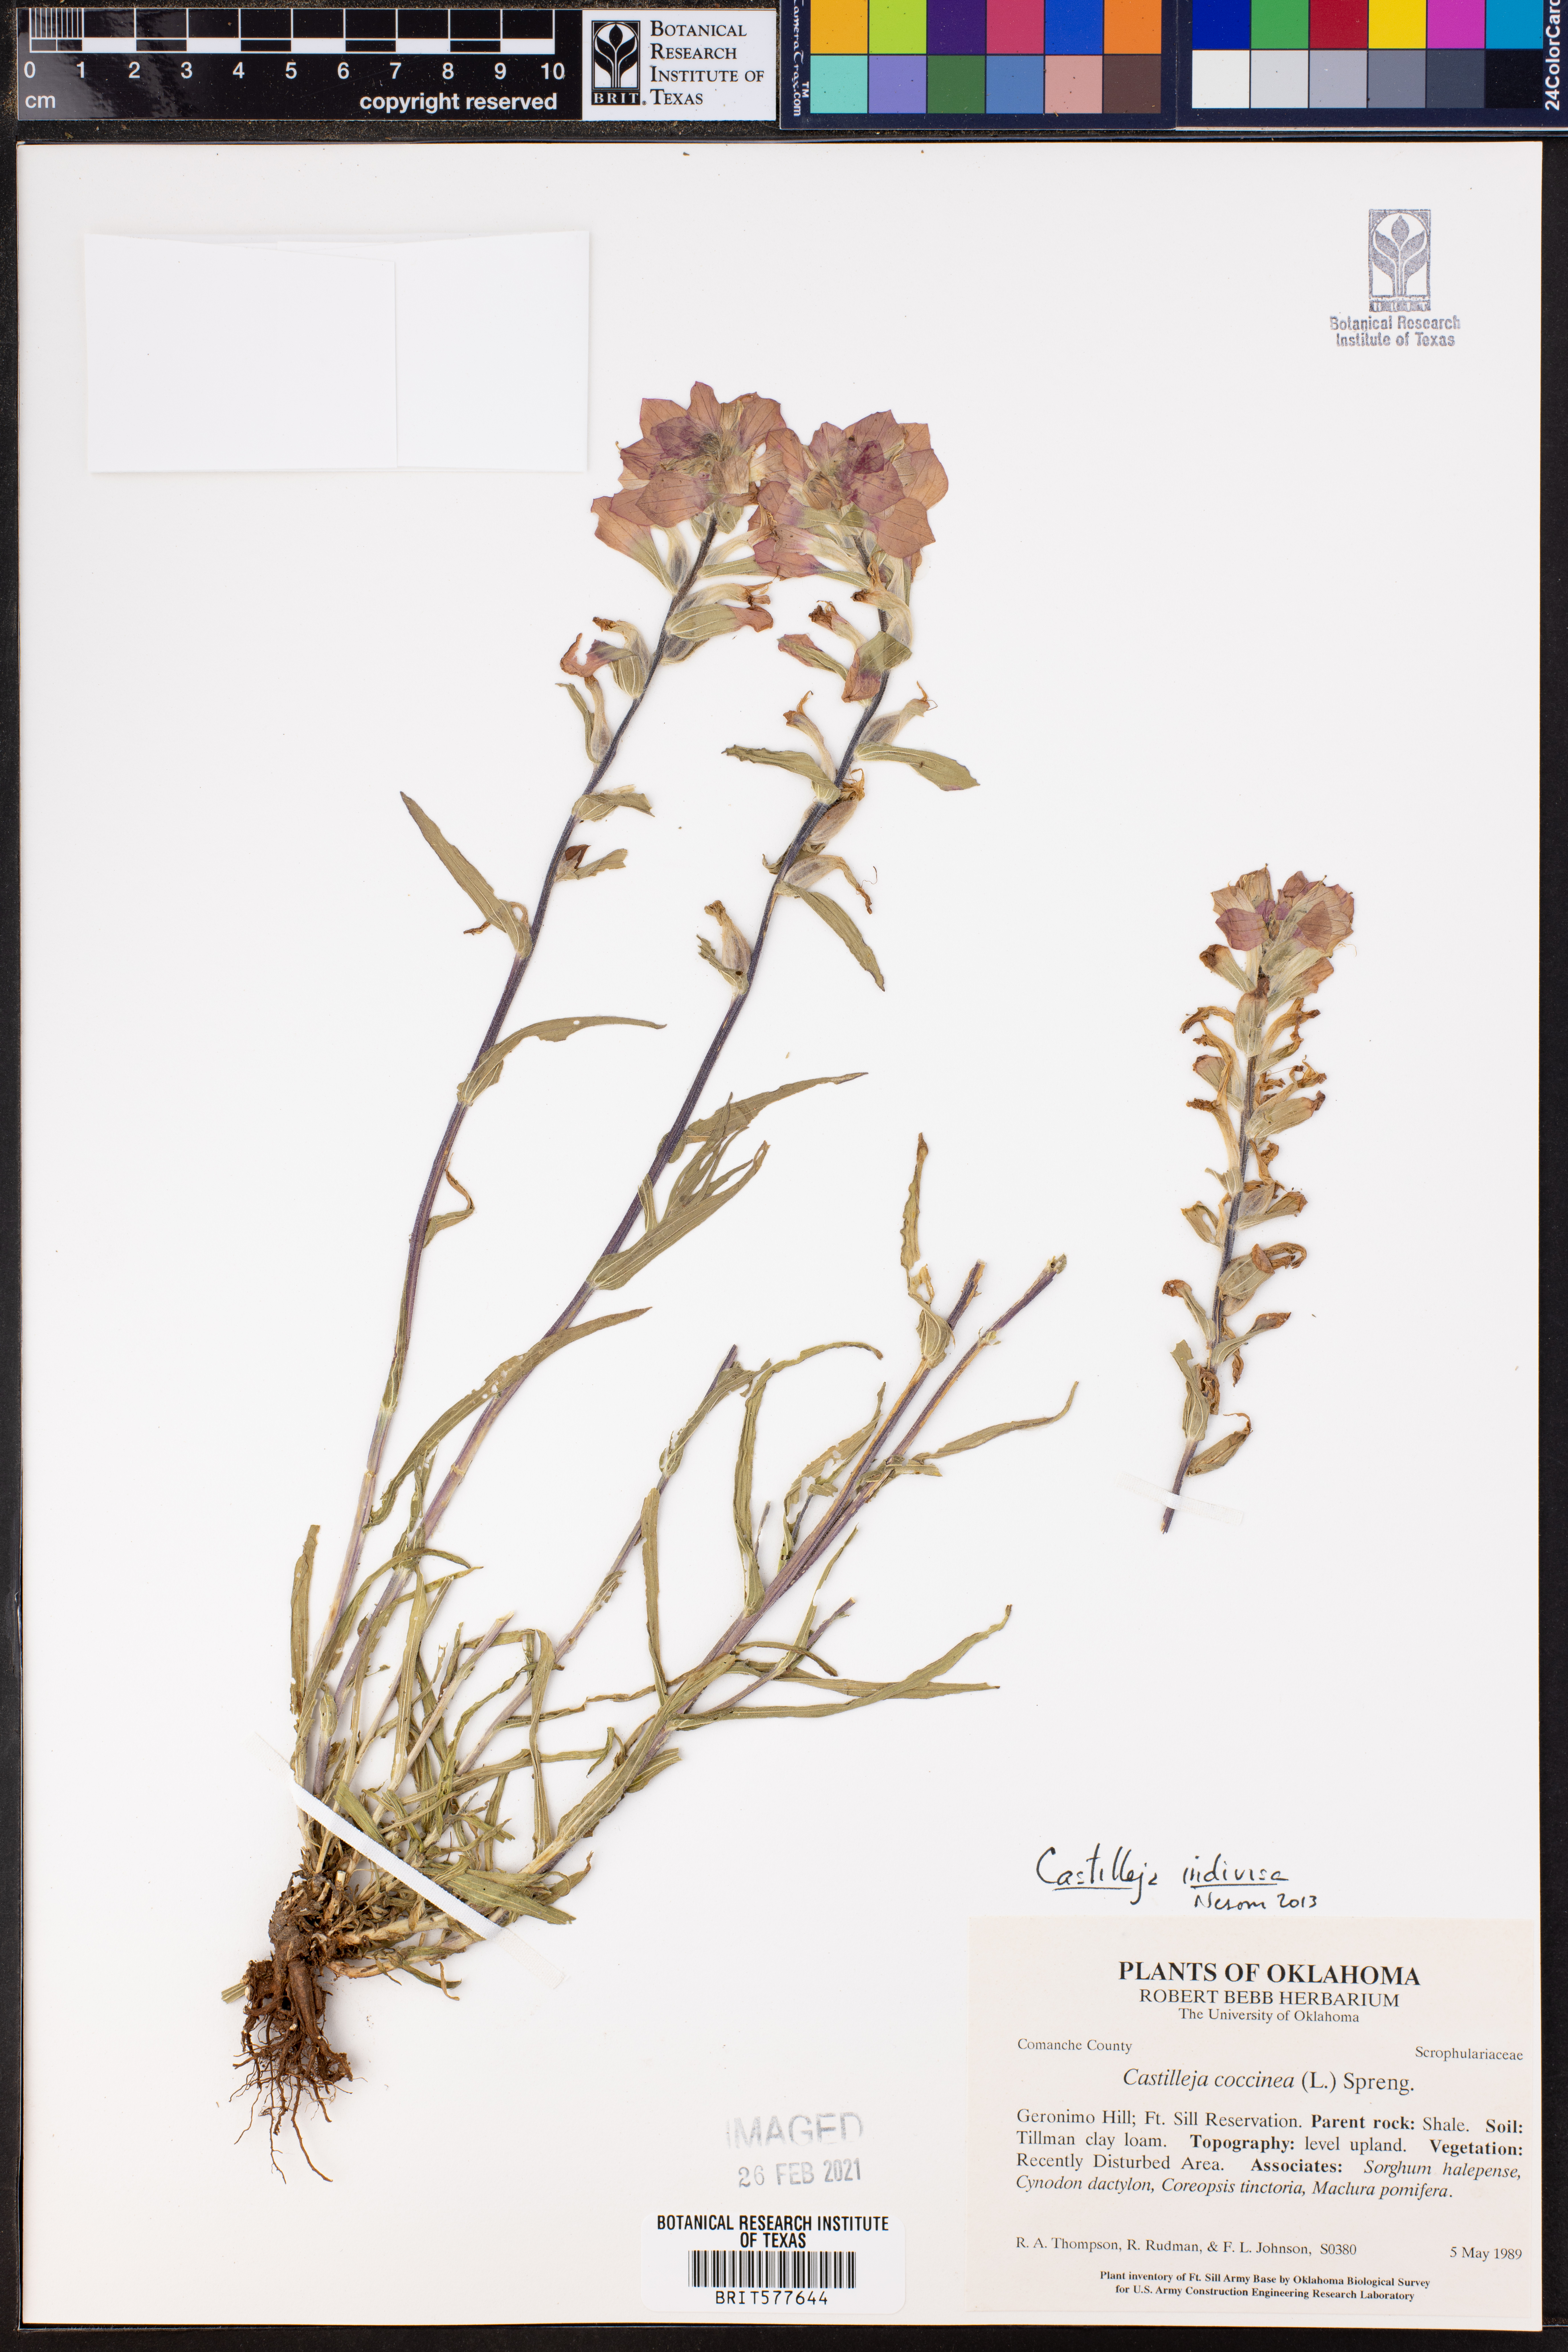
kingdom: Plantae
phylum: Tracheophyta
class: Magnoliopsida
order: Lamiales
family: Orobanchaceae
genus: Castilleja
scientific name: Castilleja indivisa
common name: Texas paintbrush
